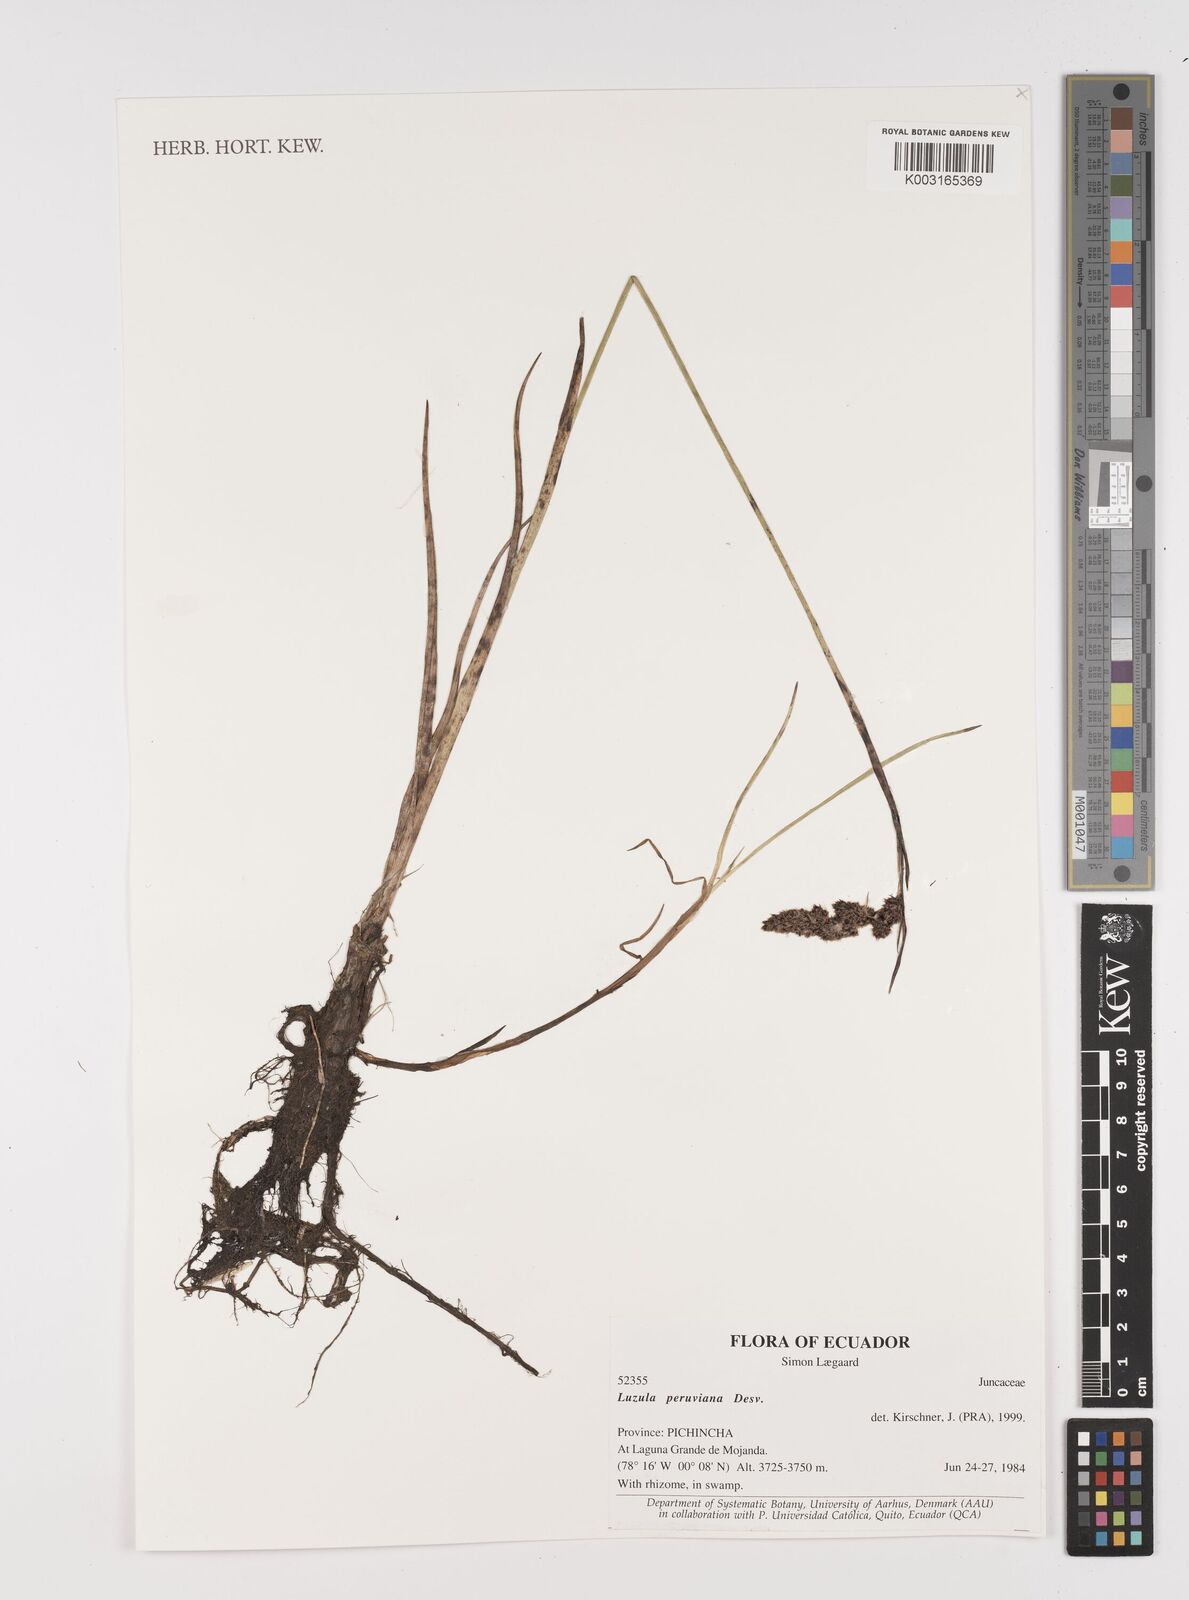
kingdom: Plantae
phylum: Tracheophyta
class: Liliopsida
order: Poales
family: Juncaceae
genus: Luzula
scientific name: Luzula peruviana
